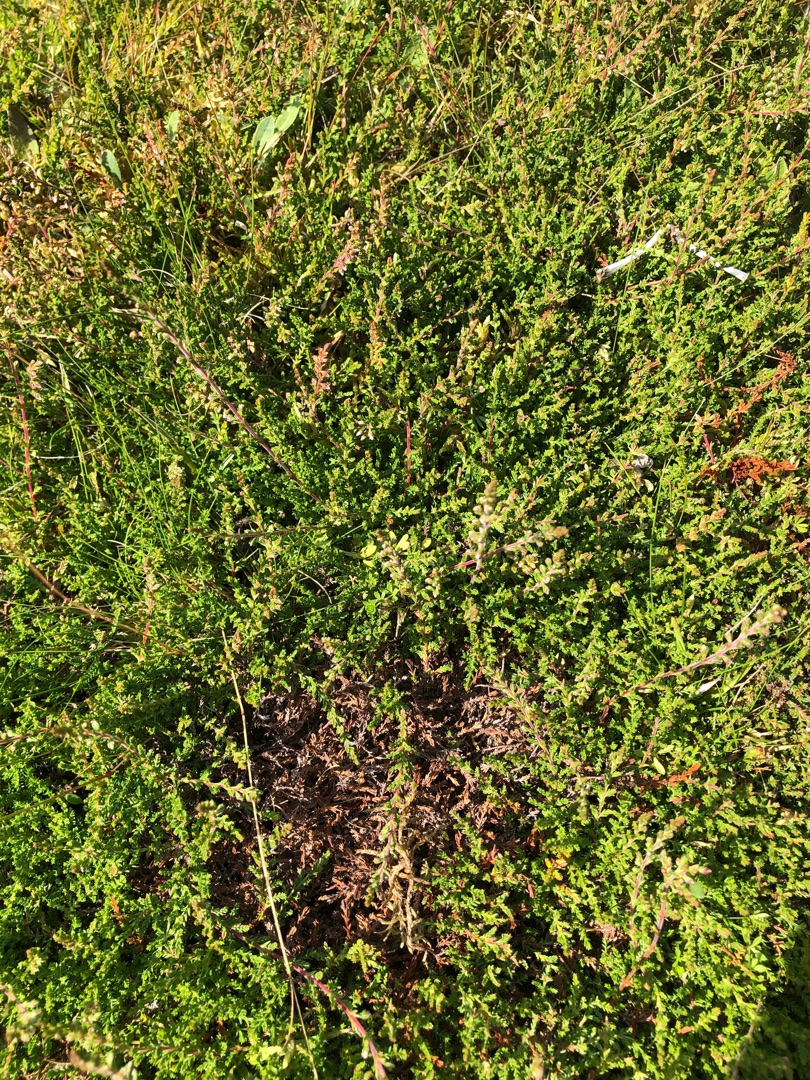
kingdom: Plantae
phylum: Tracheophyta
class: Magnoliopsida
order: Ericales
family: Ericaceae
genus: Calluna
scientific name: Calluna vulgaris
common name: Hedelyng
